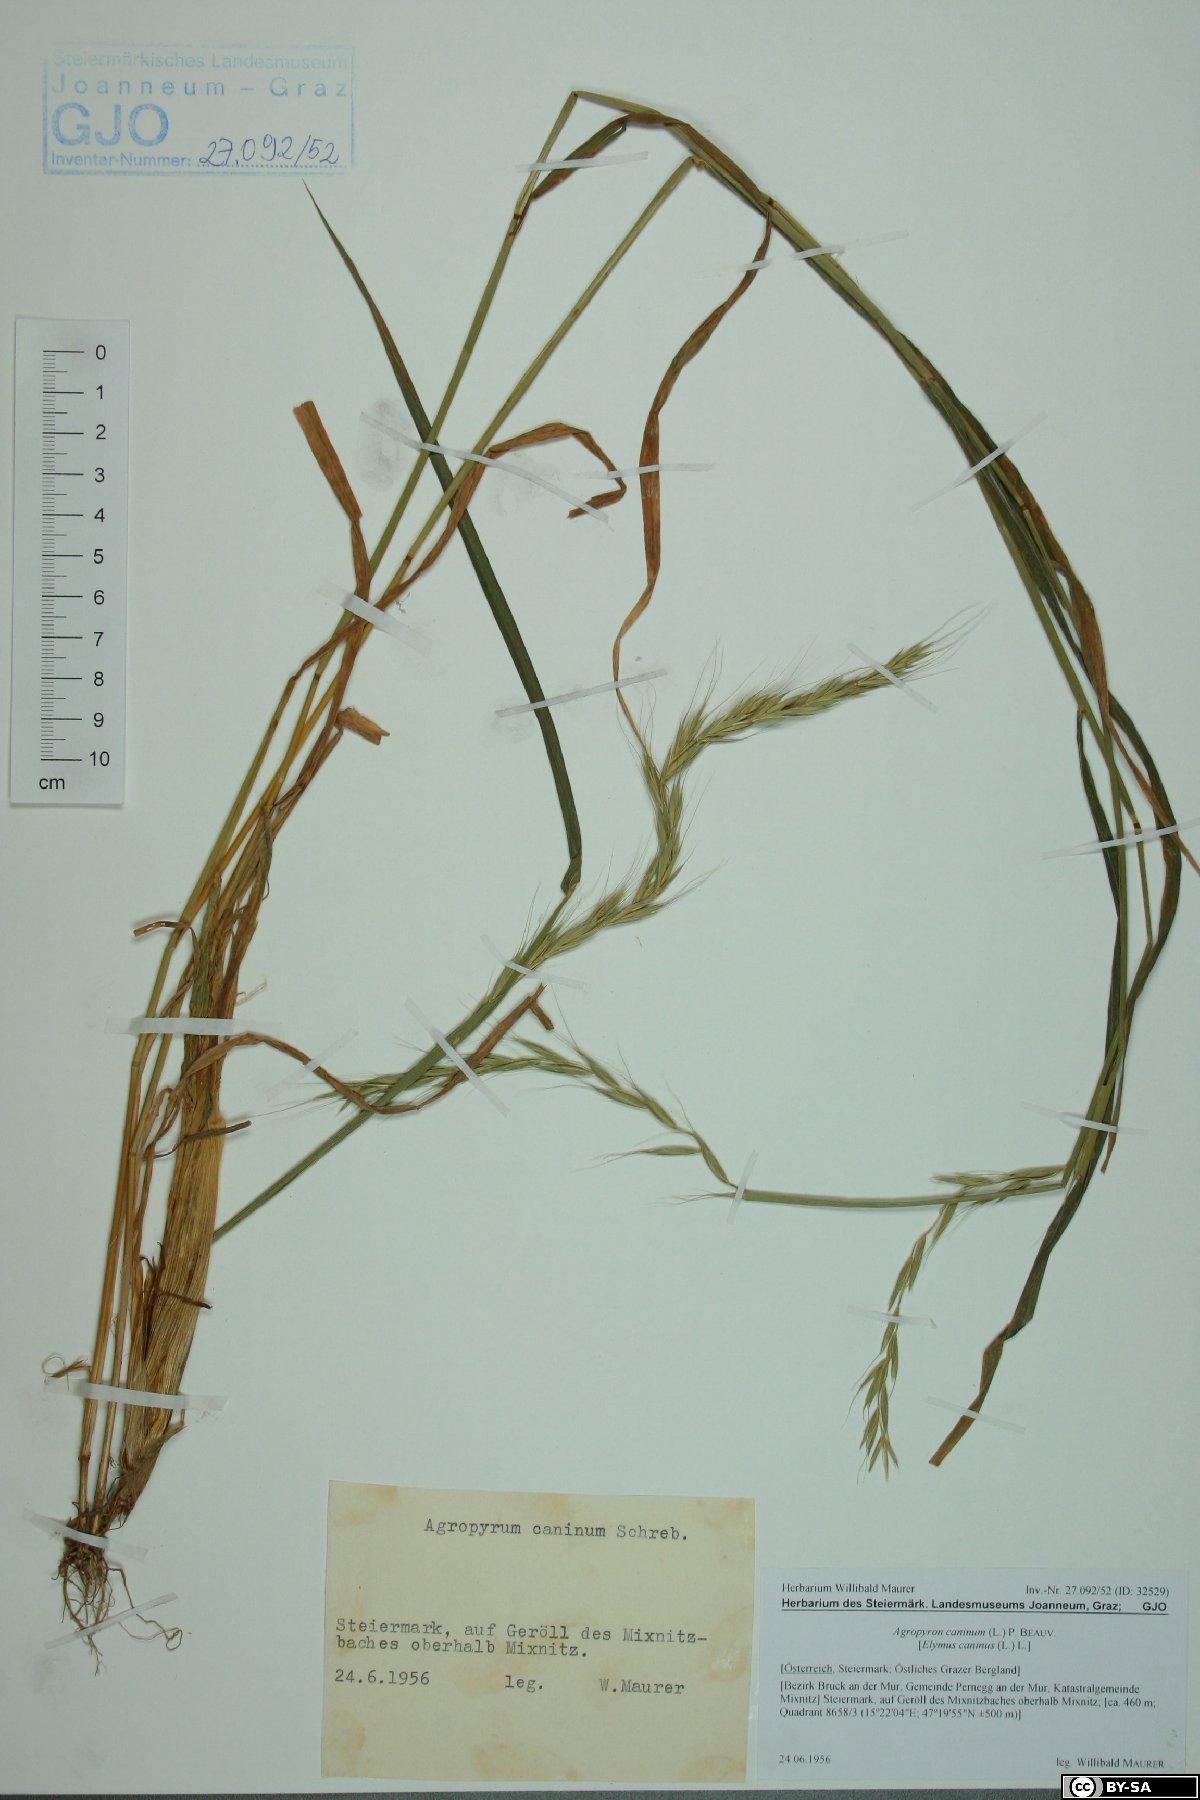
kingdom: Plantae
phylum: Tracheophyta
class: Liliopsida
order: Poales
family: Poaceae
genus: Elymus
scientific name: Elymus caninus
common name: Bearded couch
